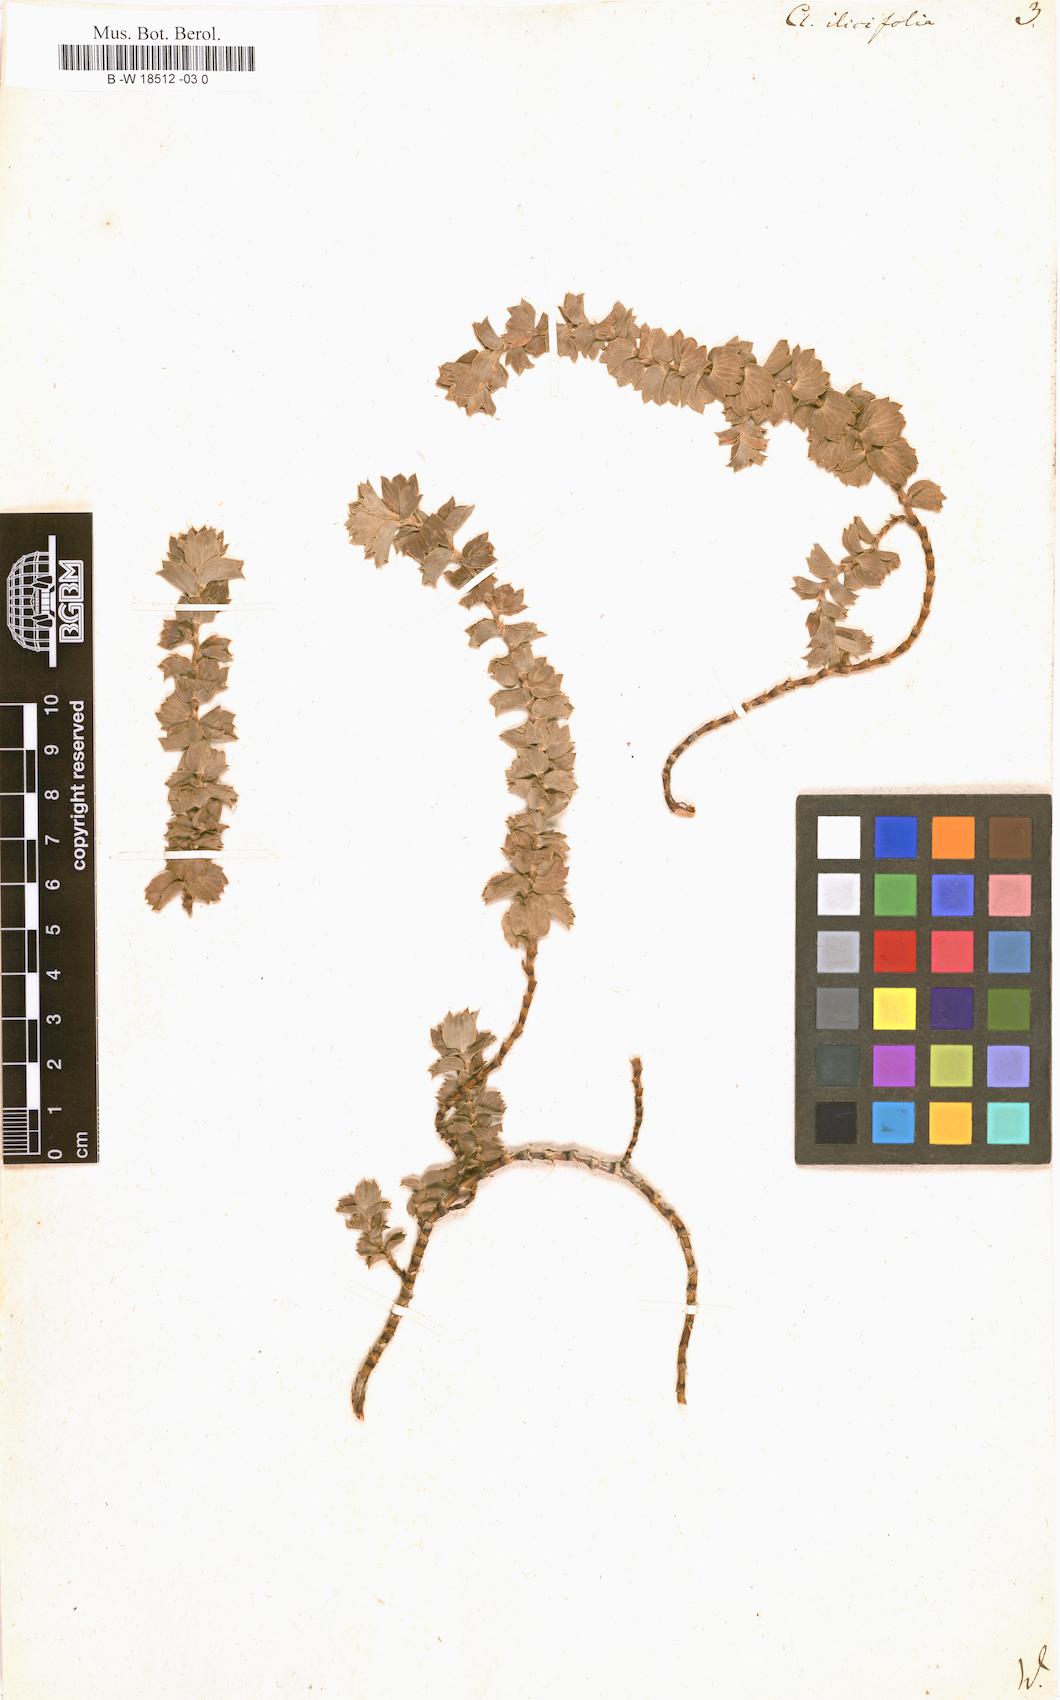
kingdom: Plantae
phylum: Tracheophyta
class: Magnoliopsida
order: Rosales
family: Rosaceae
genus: Cliffortia
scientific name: Cliffortia ilicifolia
